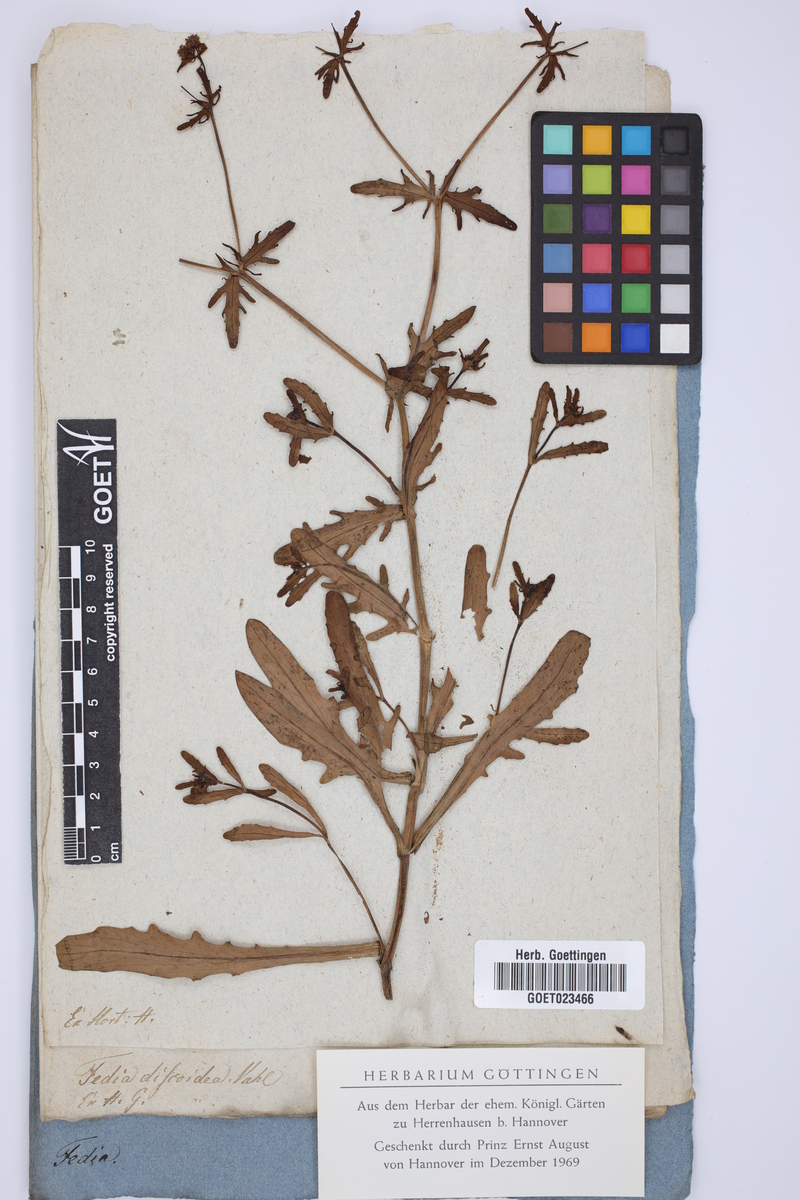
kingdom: Plantae
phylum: Tracheophyta
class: Magnoliopsida
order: Dipsacales
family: Caprifoliaceae
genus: Valerianella
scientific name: Valerianella discoidea
